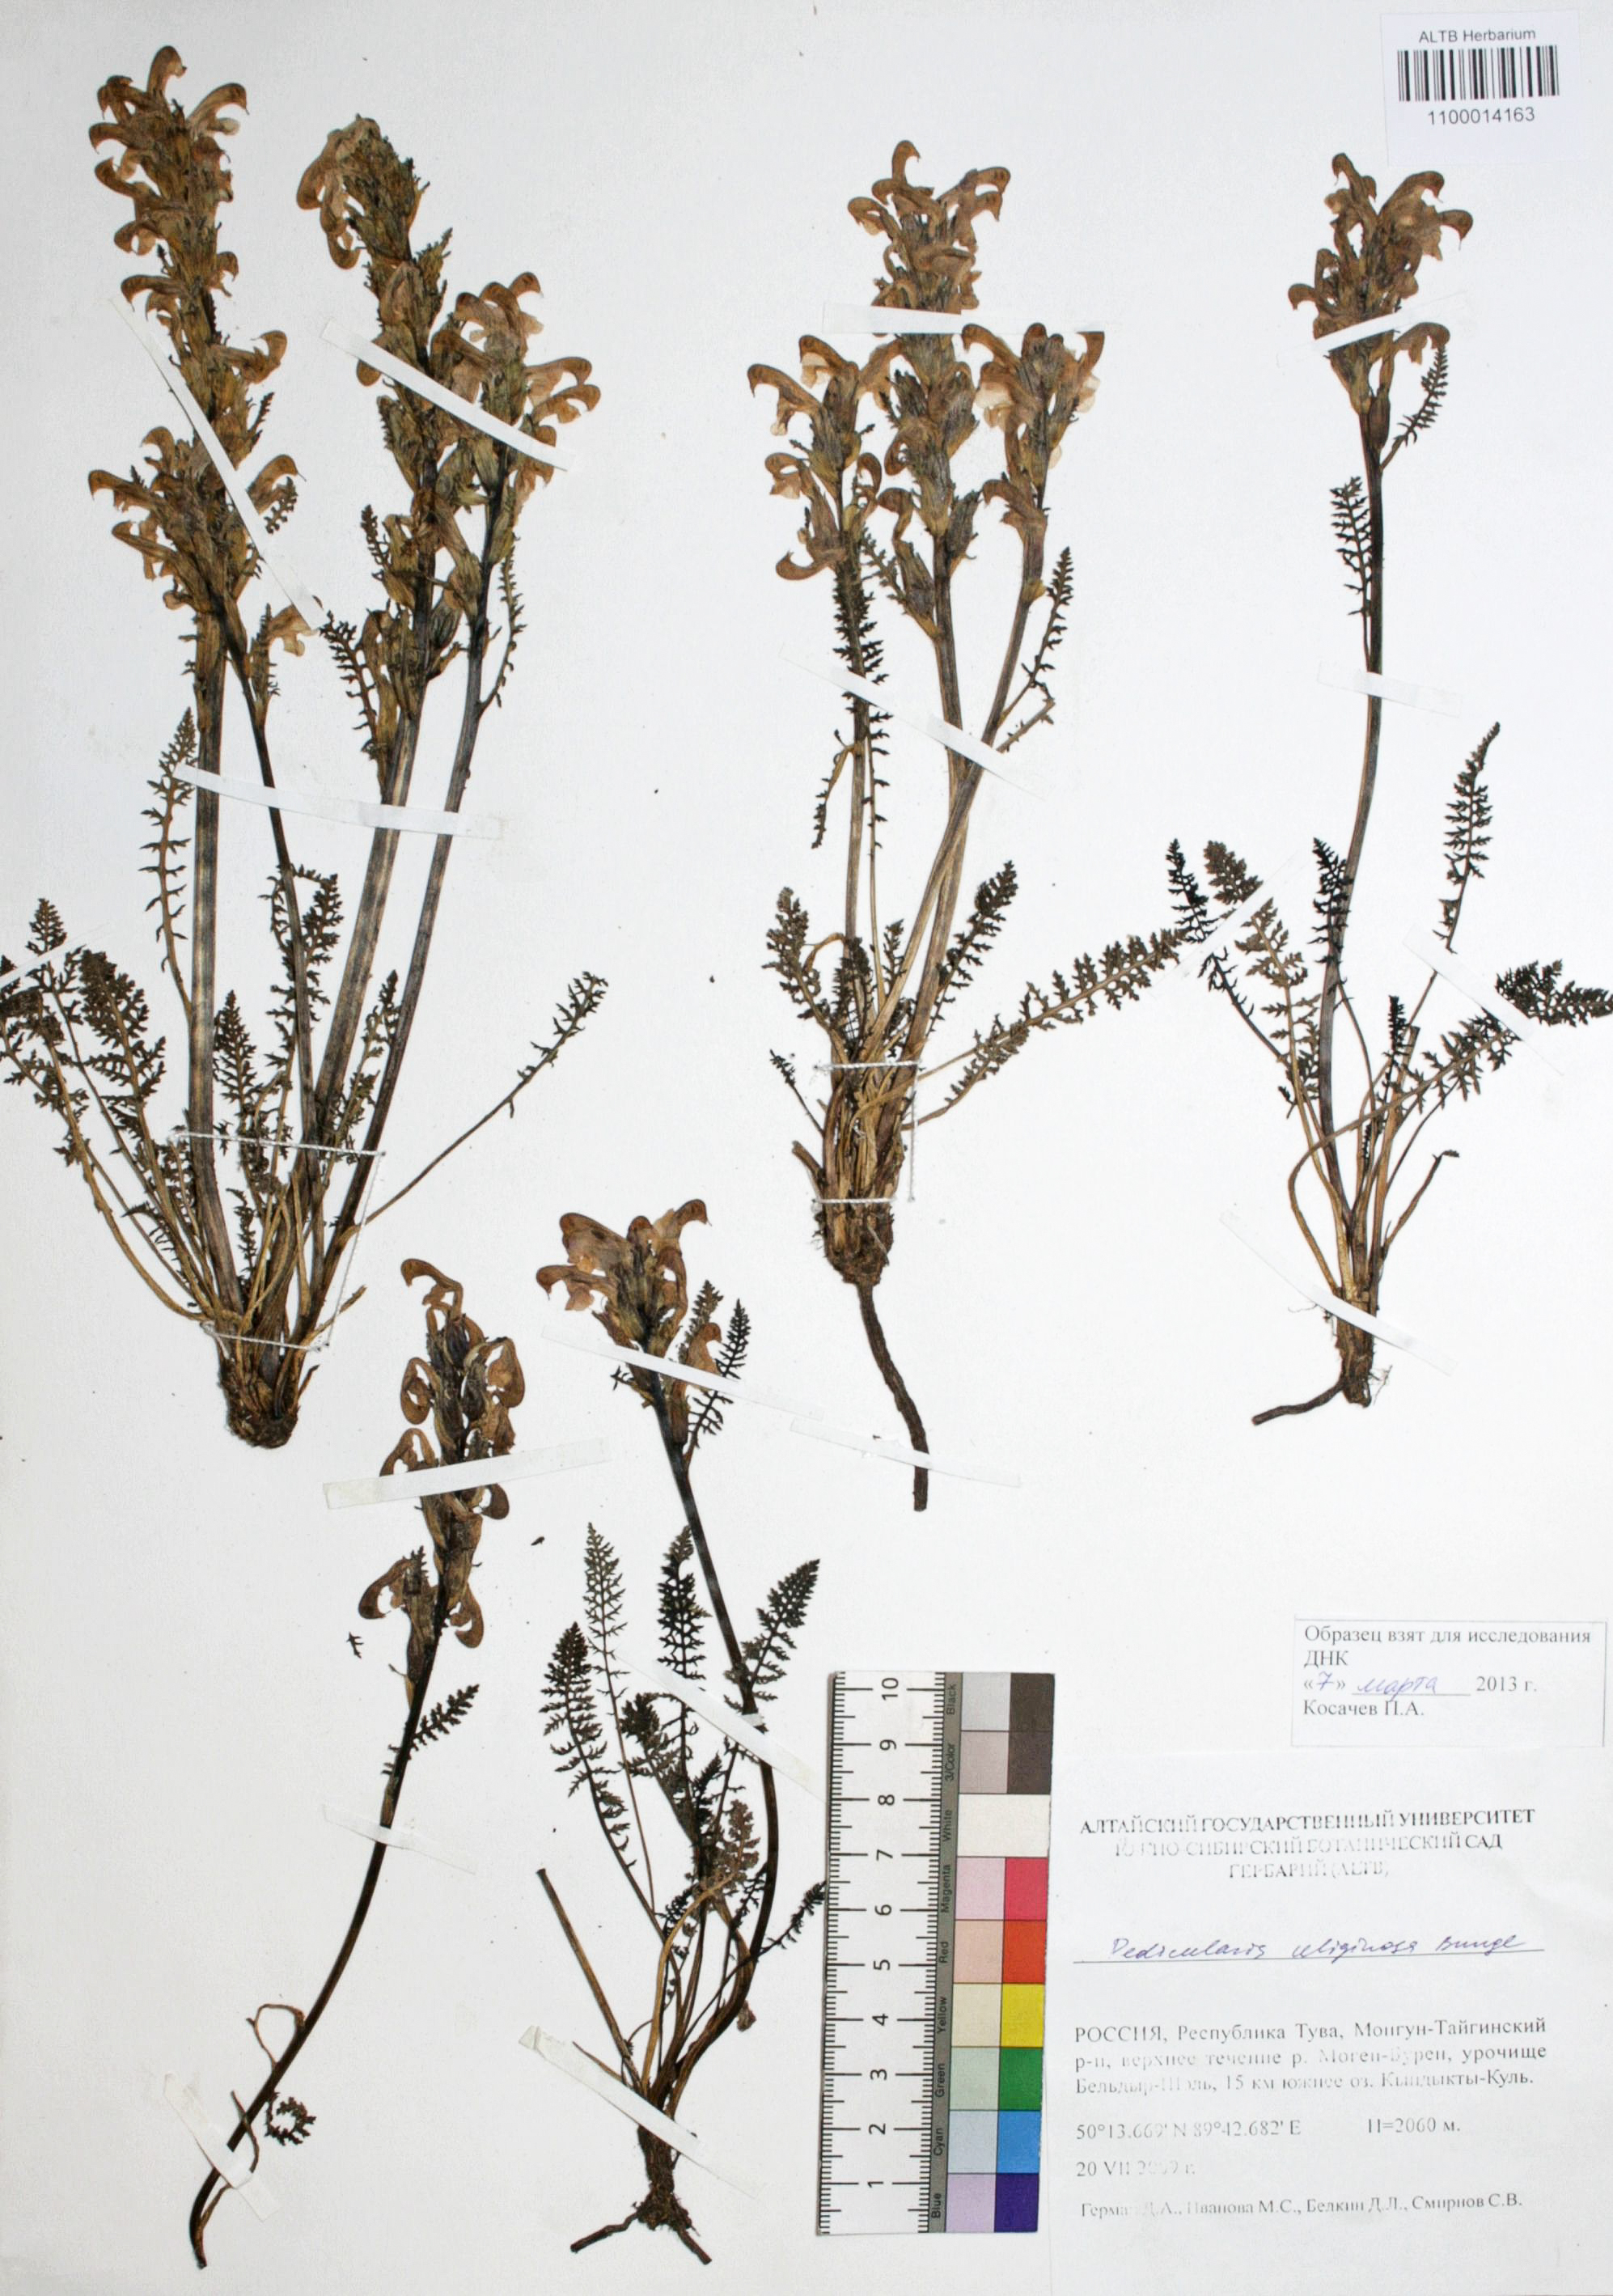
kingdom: Plantae
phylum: Tracheophyta
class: Magnoliopsida
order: Lamiales
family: Orobanchaceae
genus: Pedicularis
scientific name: Pedicularis uliginosa
